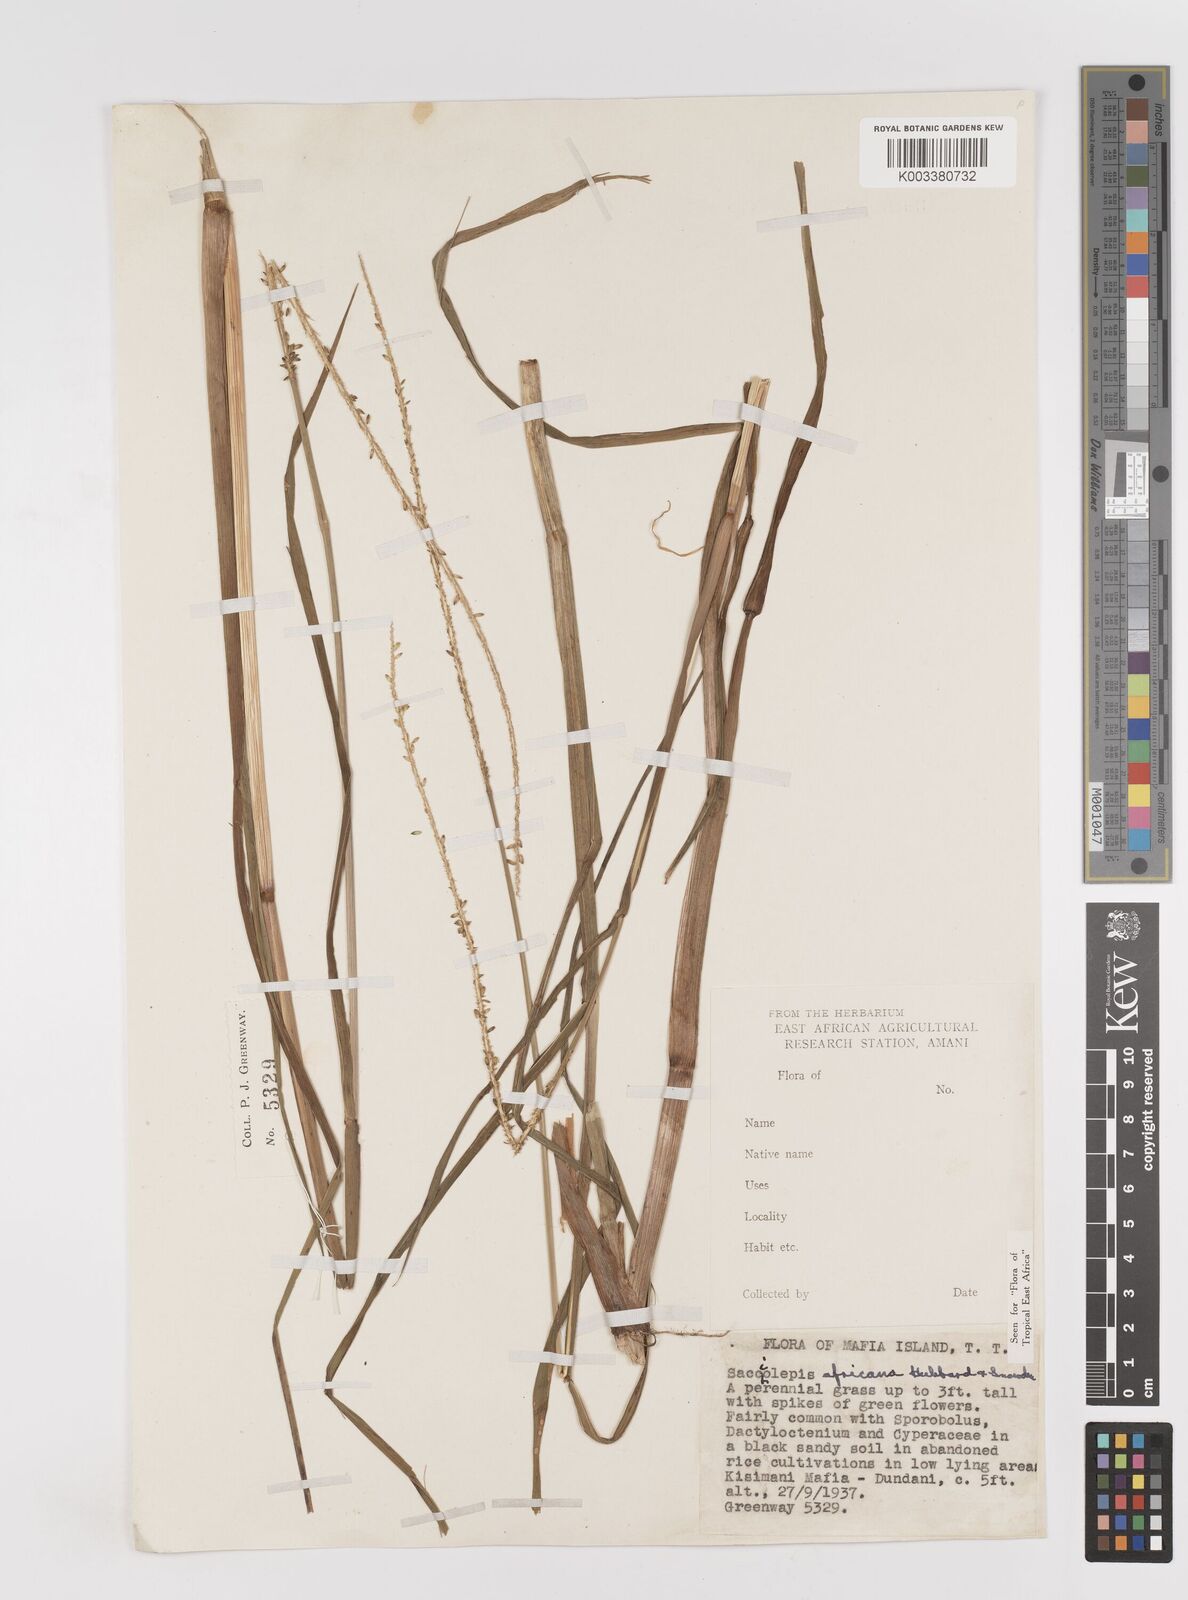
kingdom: Plantae
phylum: Tracheophyta
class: Liliopsida
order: Poales
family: Poaceae
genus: Sacciolepis
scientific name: Sacciolepis africana
